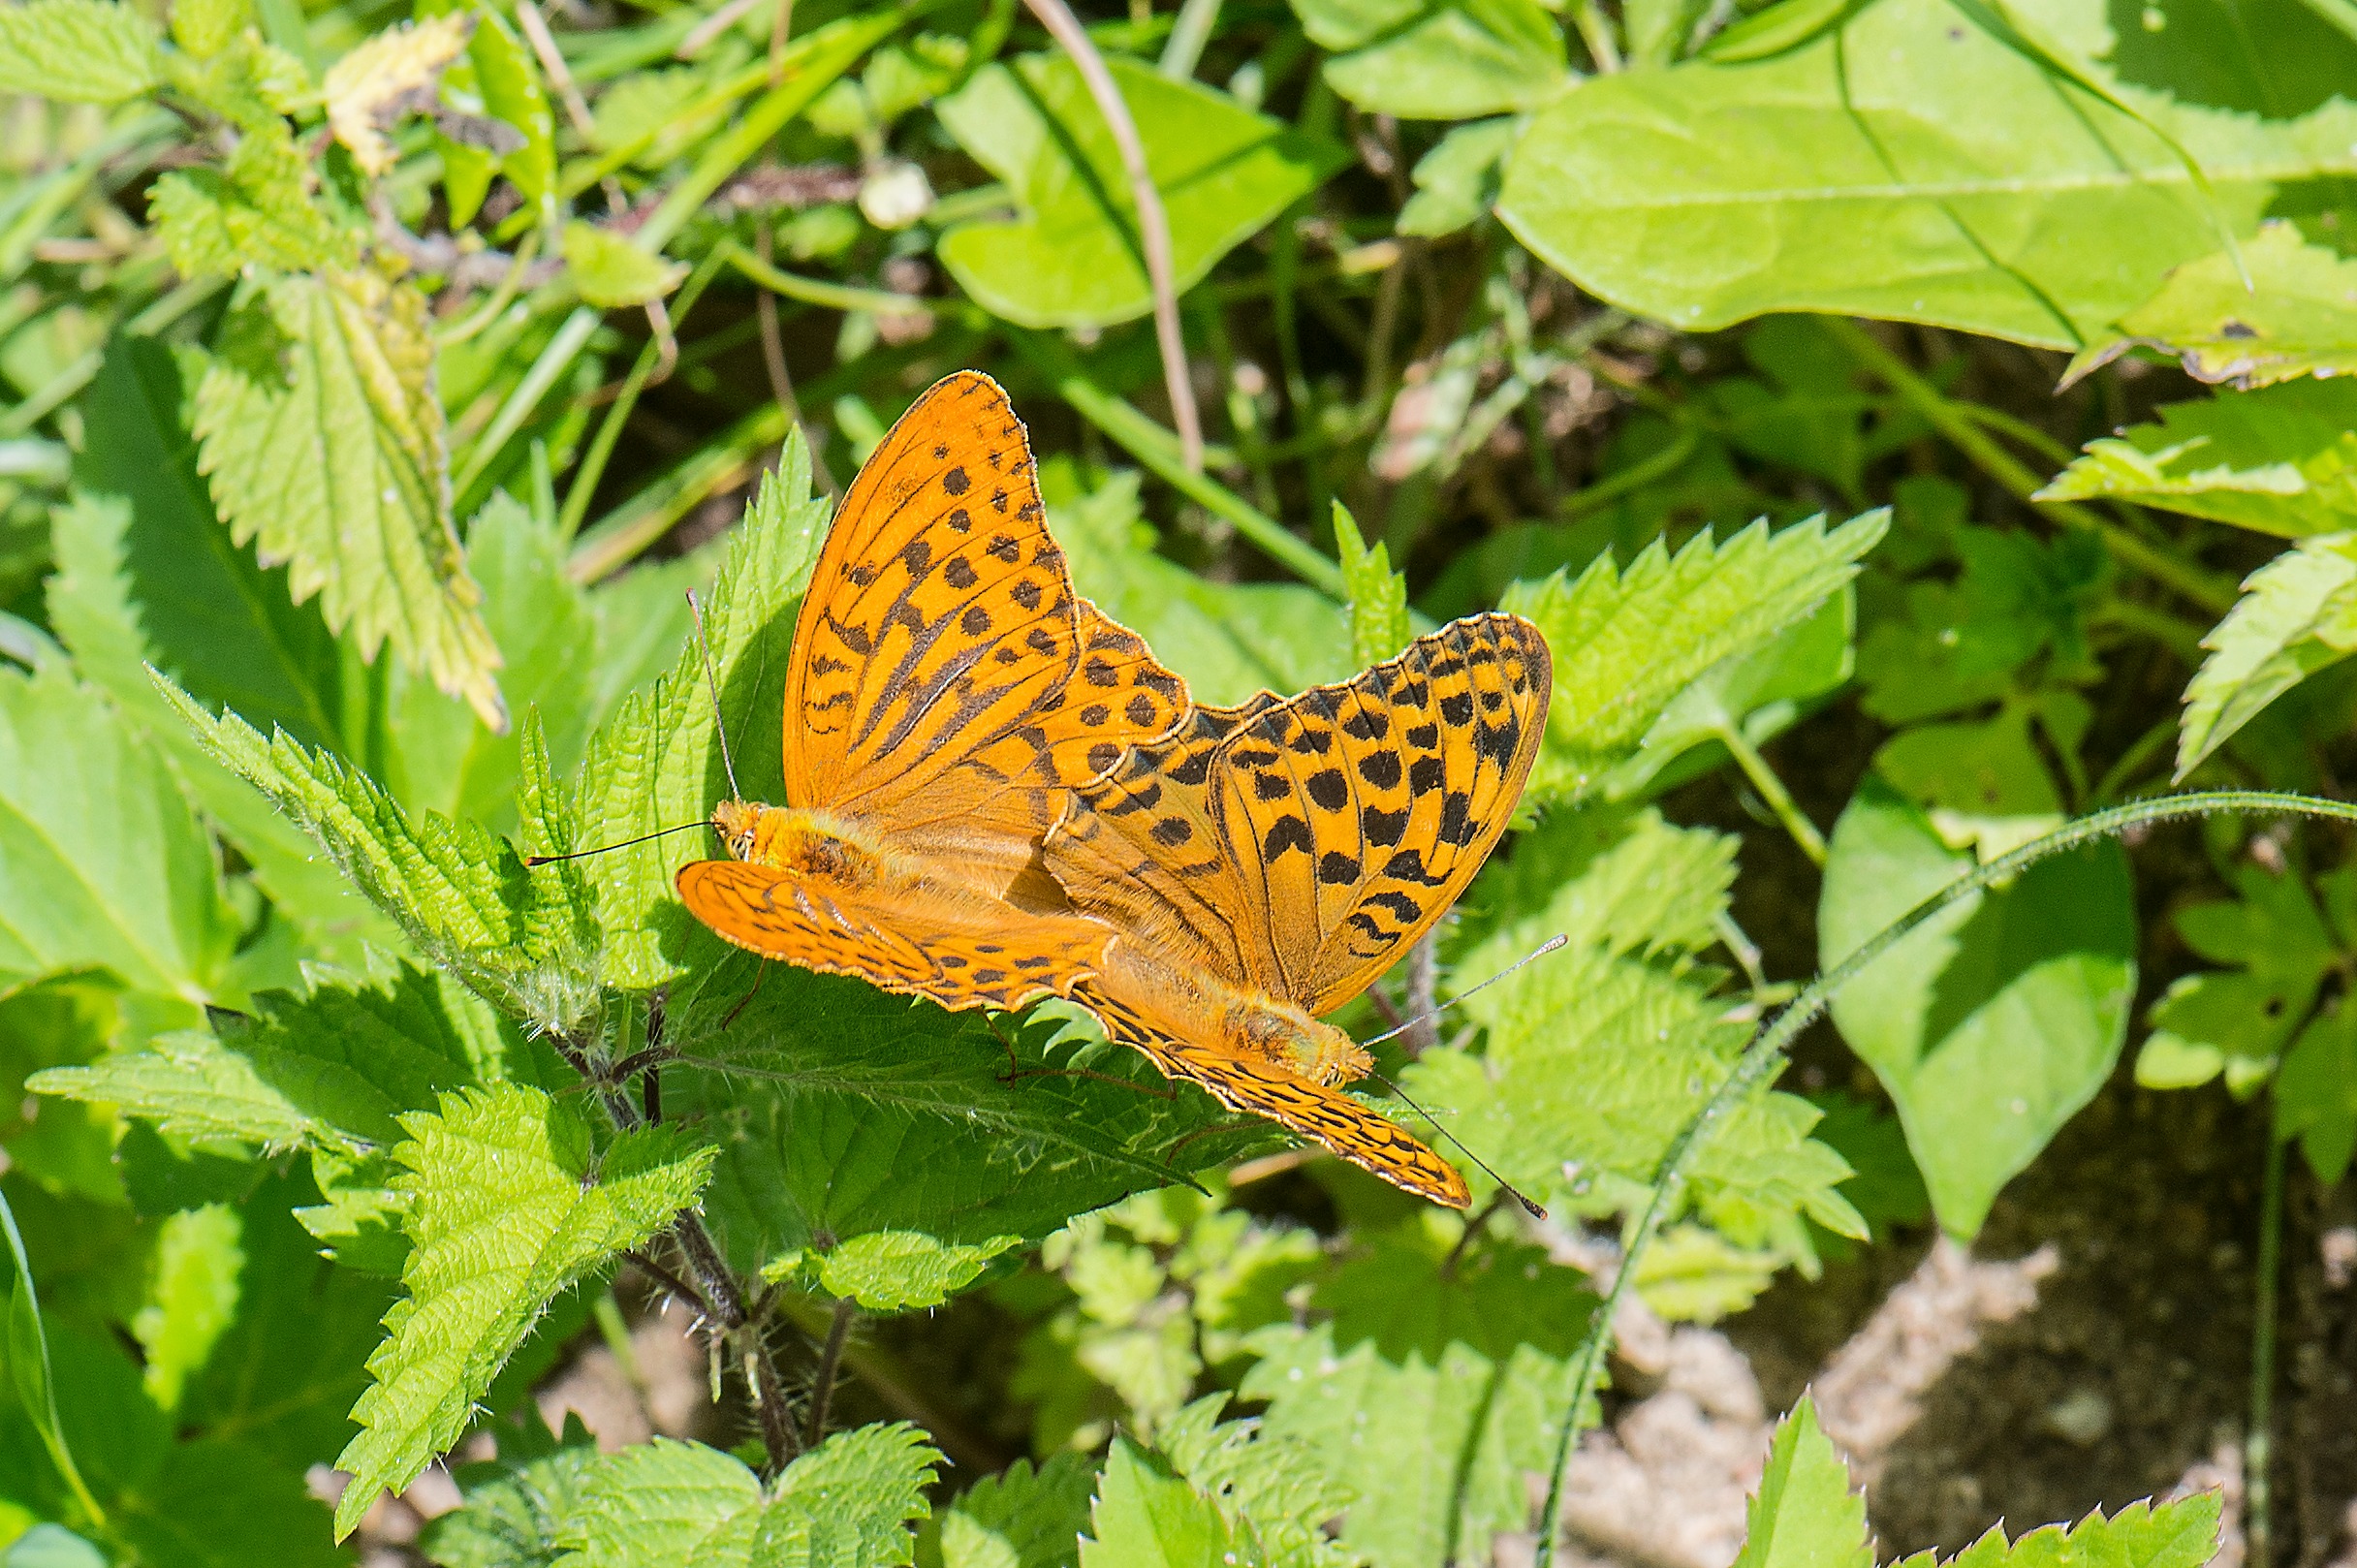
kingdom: Animalia
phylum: Arthropoda
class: Insecta
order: Lepidoptera
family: Nymphalidae
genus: Argynnis
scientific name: Argynnis paphia
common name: Kejserkåbe
